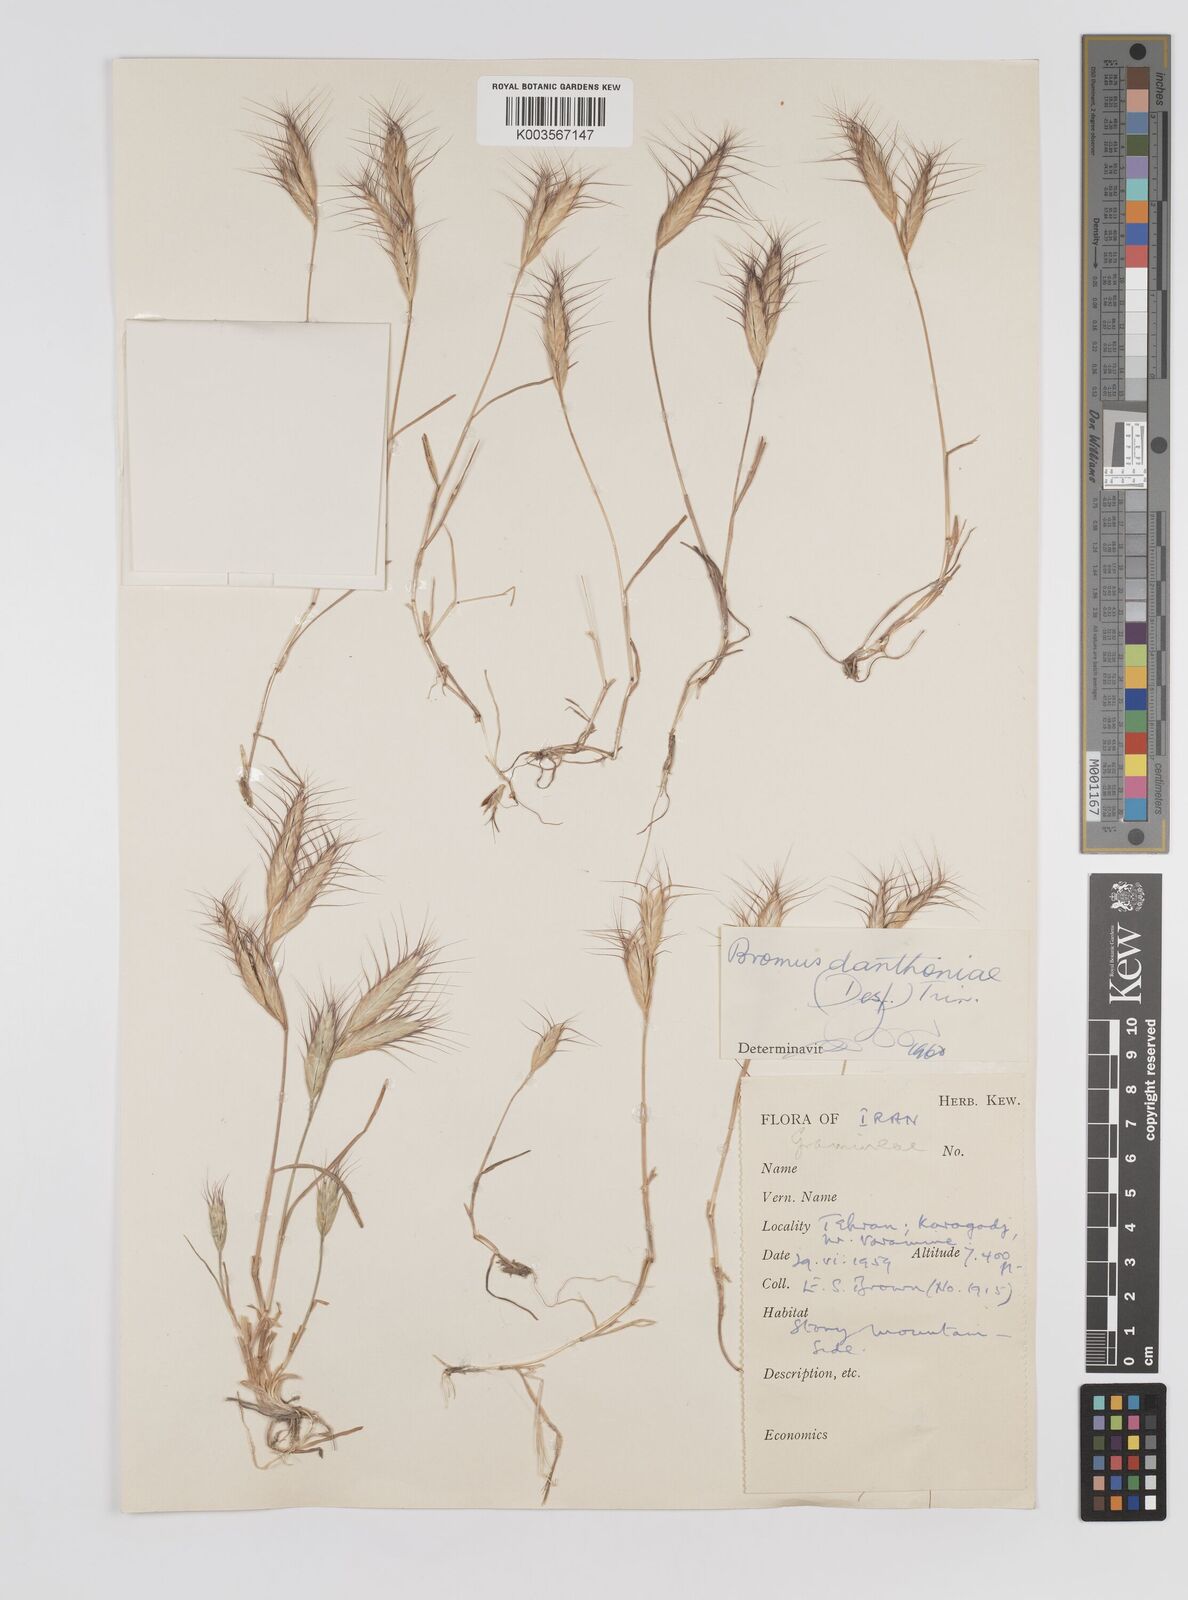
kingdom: Plantae
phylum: Tracheophyta
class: Liliopsida
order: Poales
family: Poaceae
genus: Bromus
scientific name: Bromus danthoniae
